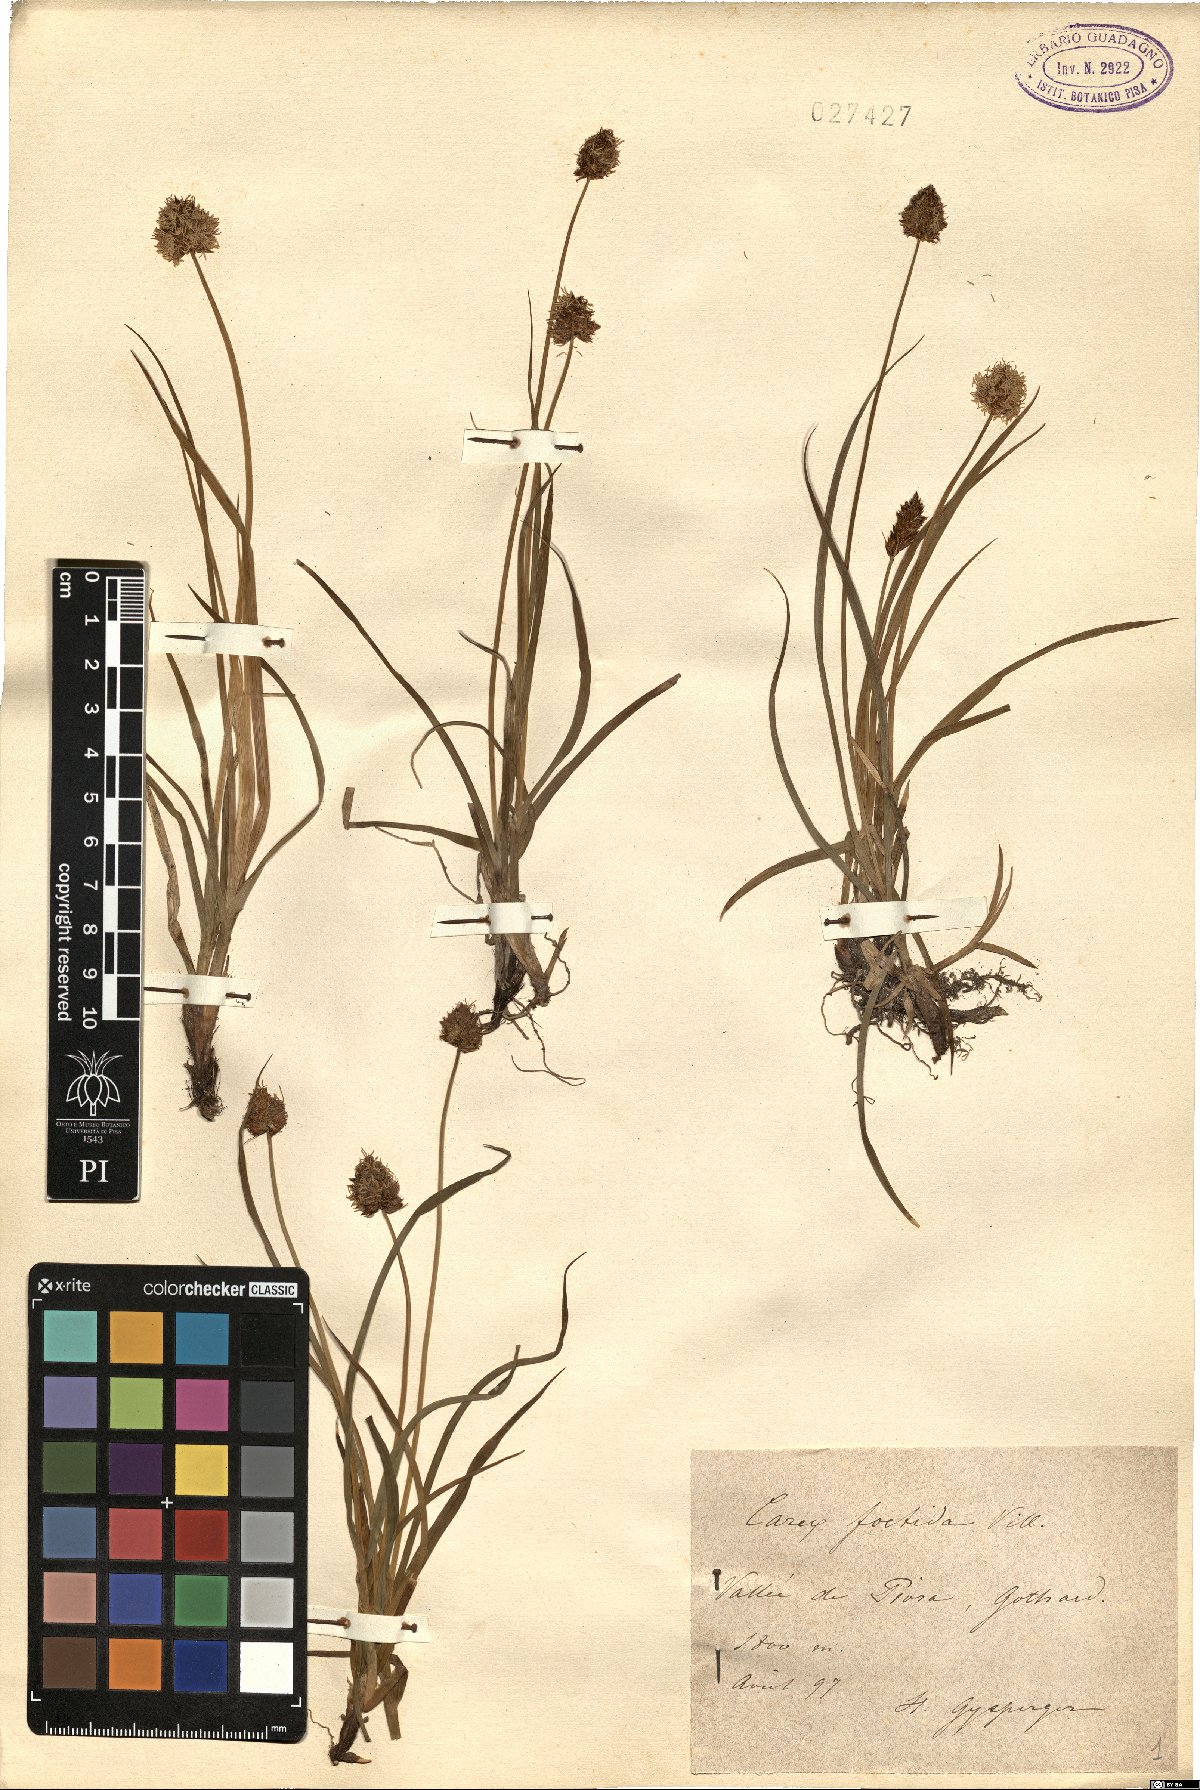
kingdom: Plantae
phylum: Tracheophyta
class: Liliopsida
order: Poales
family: Cyperaceae
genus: Carex
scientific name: Carex foetida
